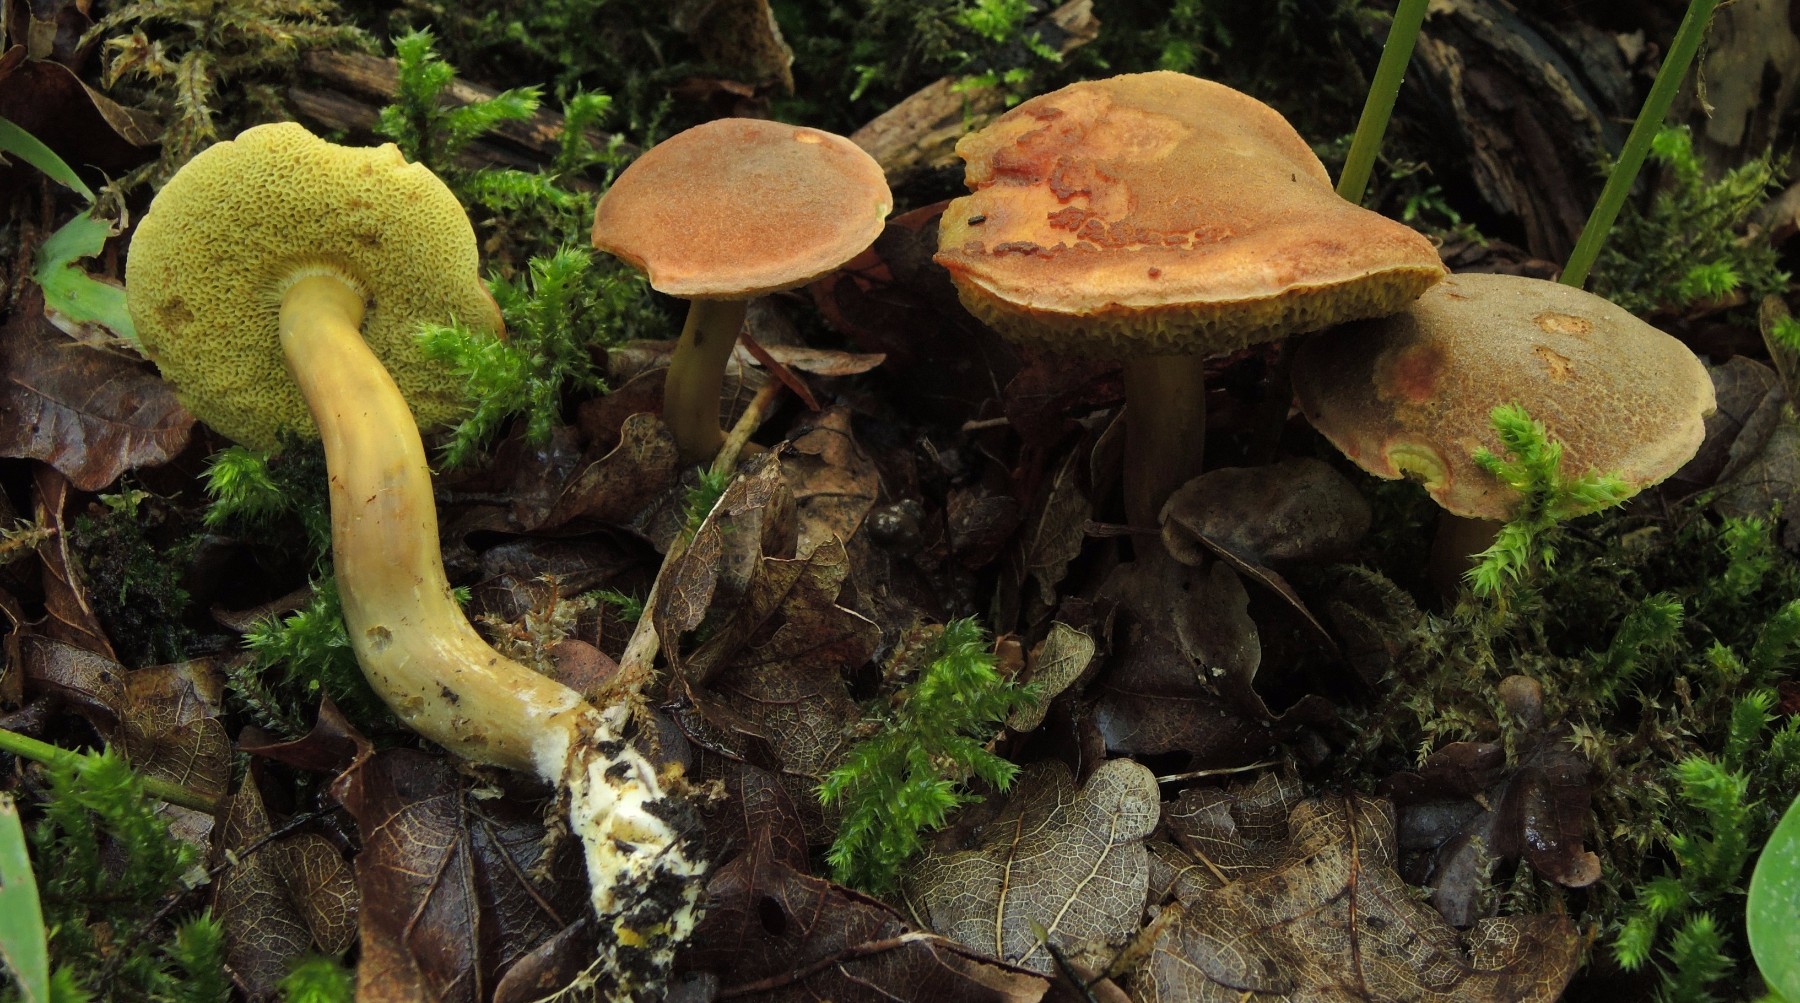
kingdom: Fungi
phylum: Basidiomycota
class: Agaricomycetes
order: Boletales
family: Boletaceae
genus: Hortiboletus
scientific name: Hortiboletus engelii
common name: fersken-rørhat
